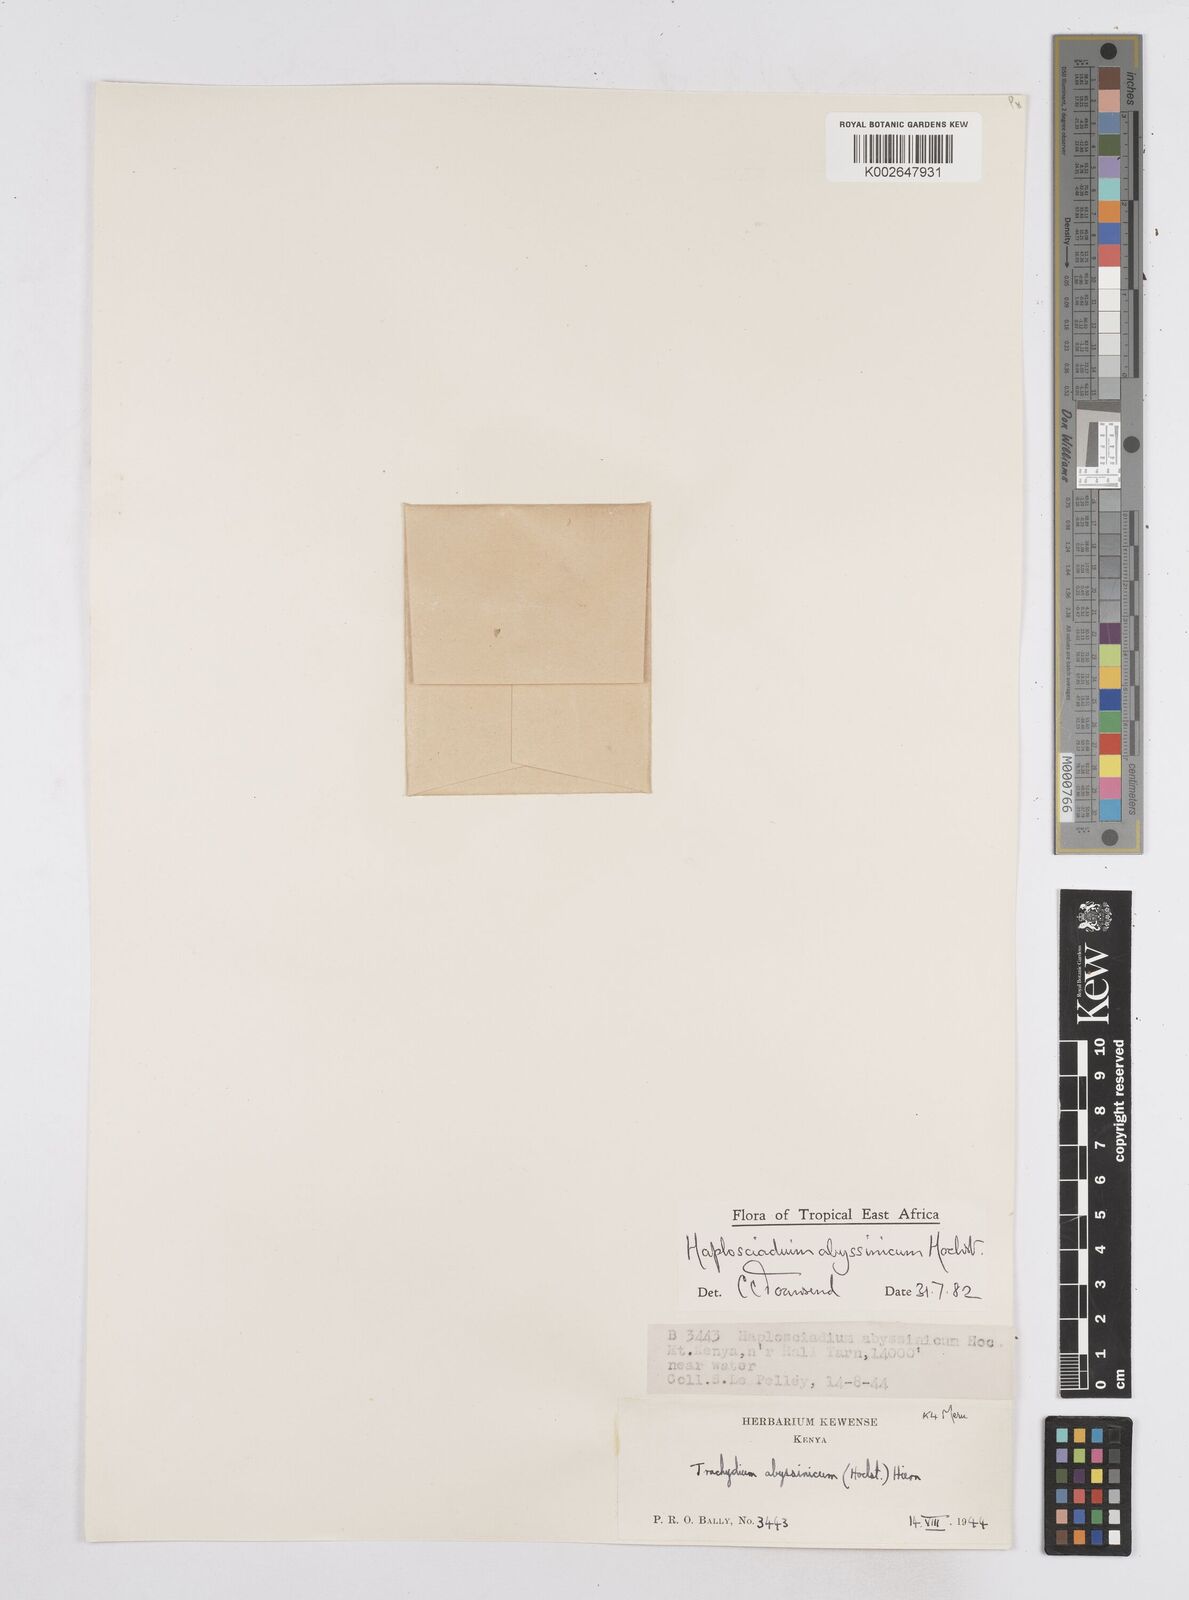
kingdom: Plantae
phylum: Tracheophyta
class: Magnoliopsida
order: Apiales
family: Apiaceae
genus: Haplosciadium
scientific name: Haplosciadium abyssinicum
